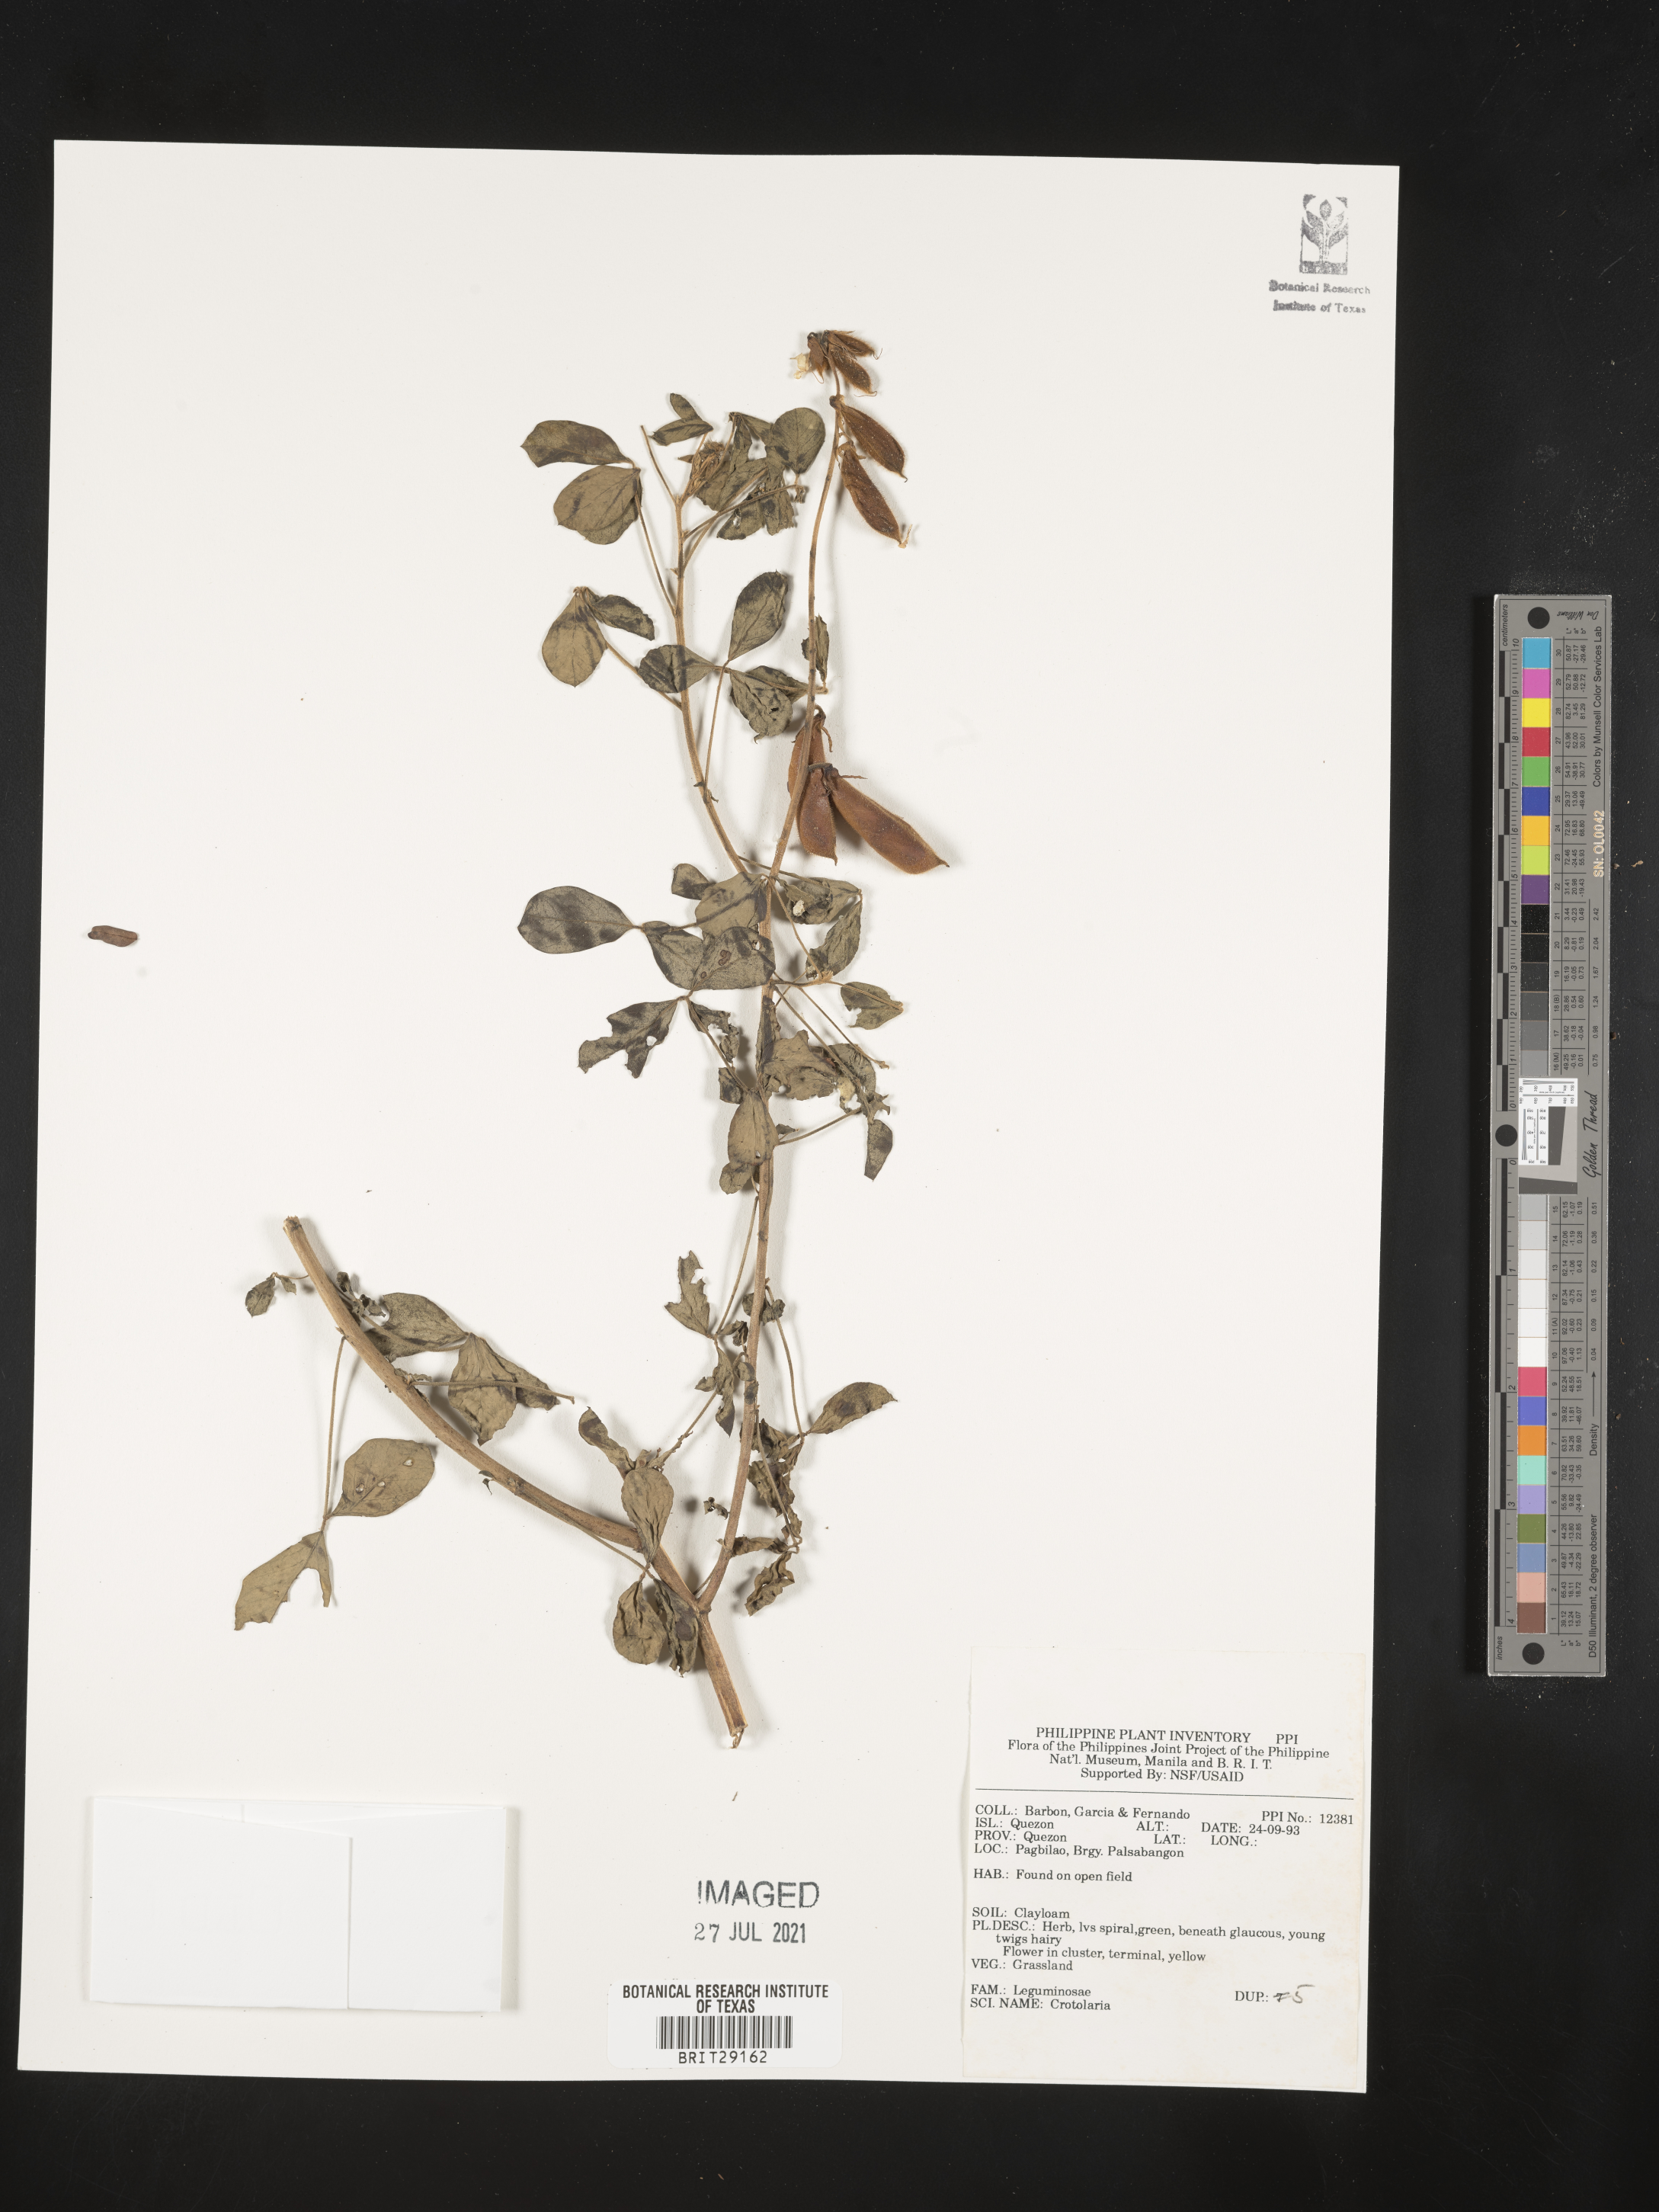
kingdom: Plantae
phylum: Tracheophyta
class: Magnoliopsida
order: Fabales
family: Fabaceae
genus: Crotalaria
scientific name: Crotalaria
